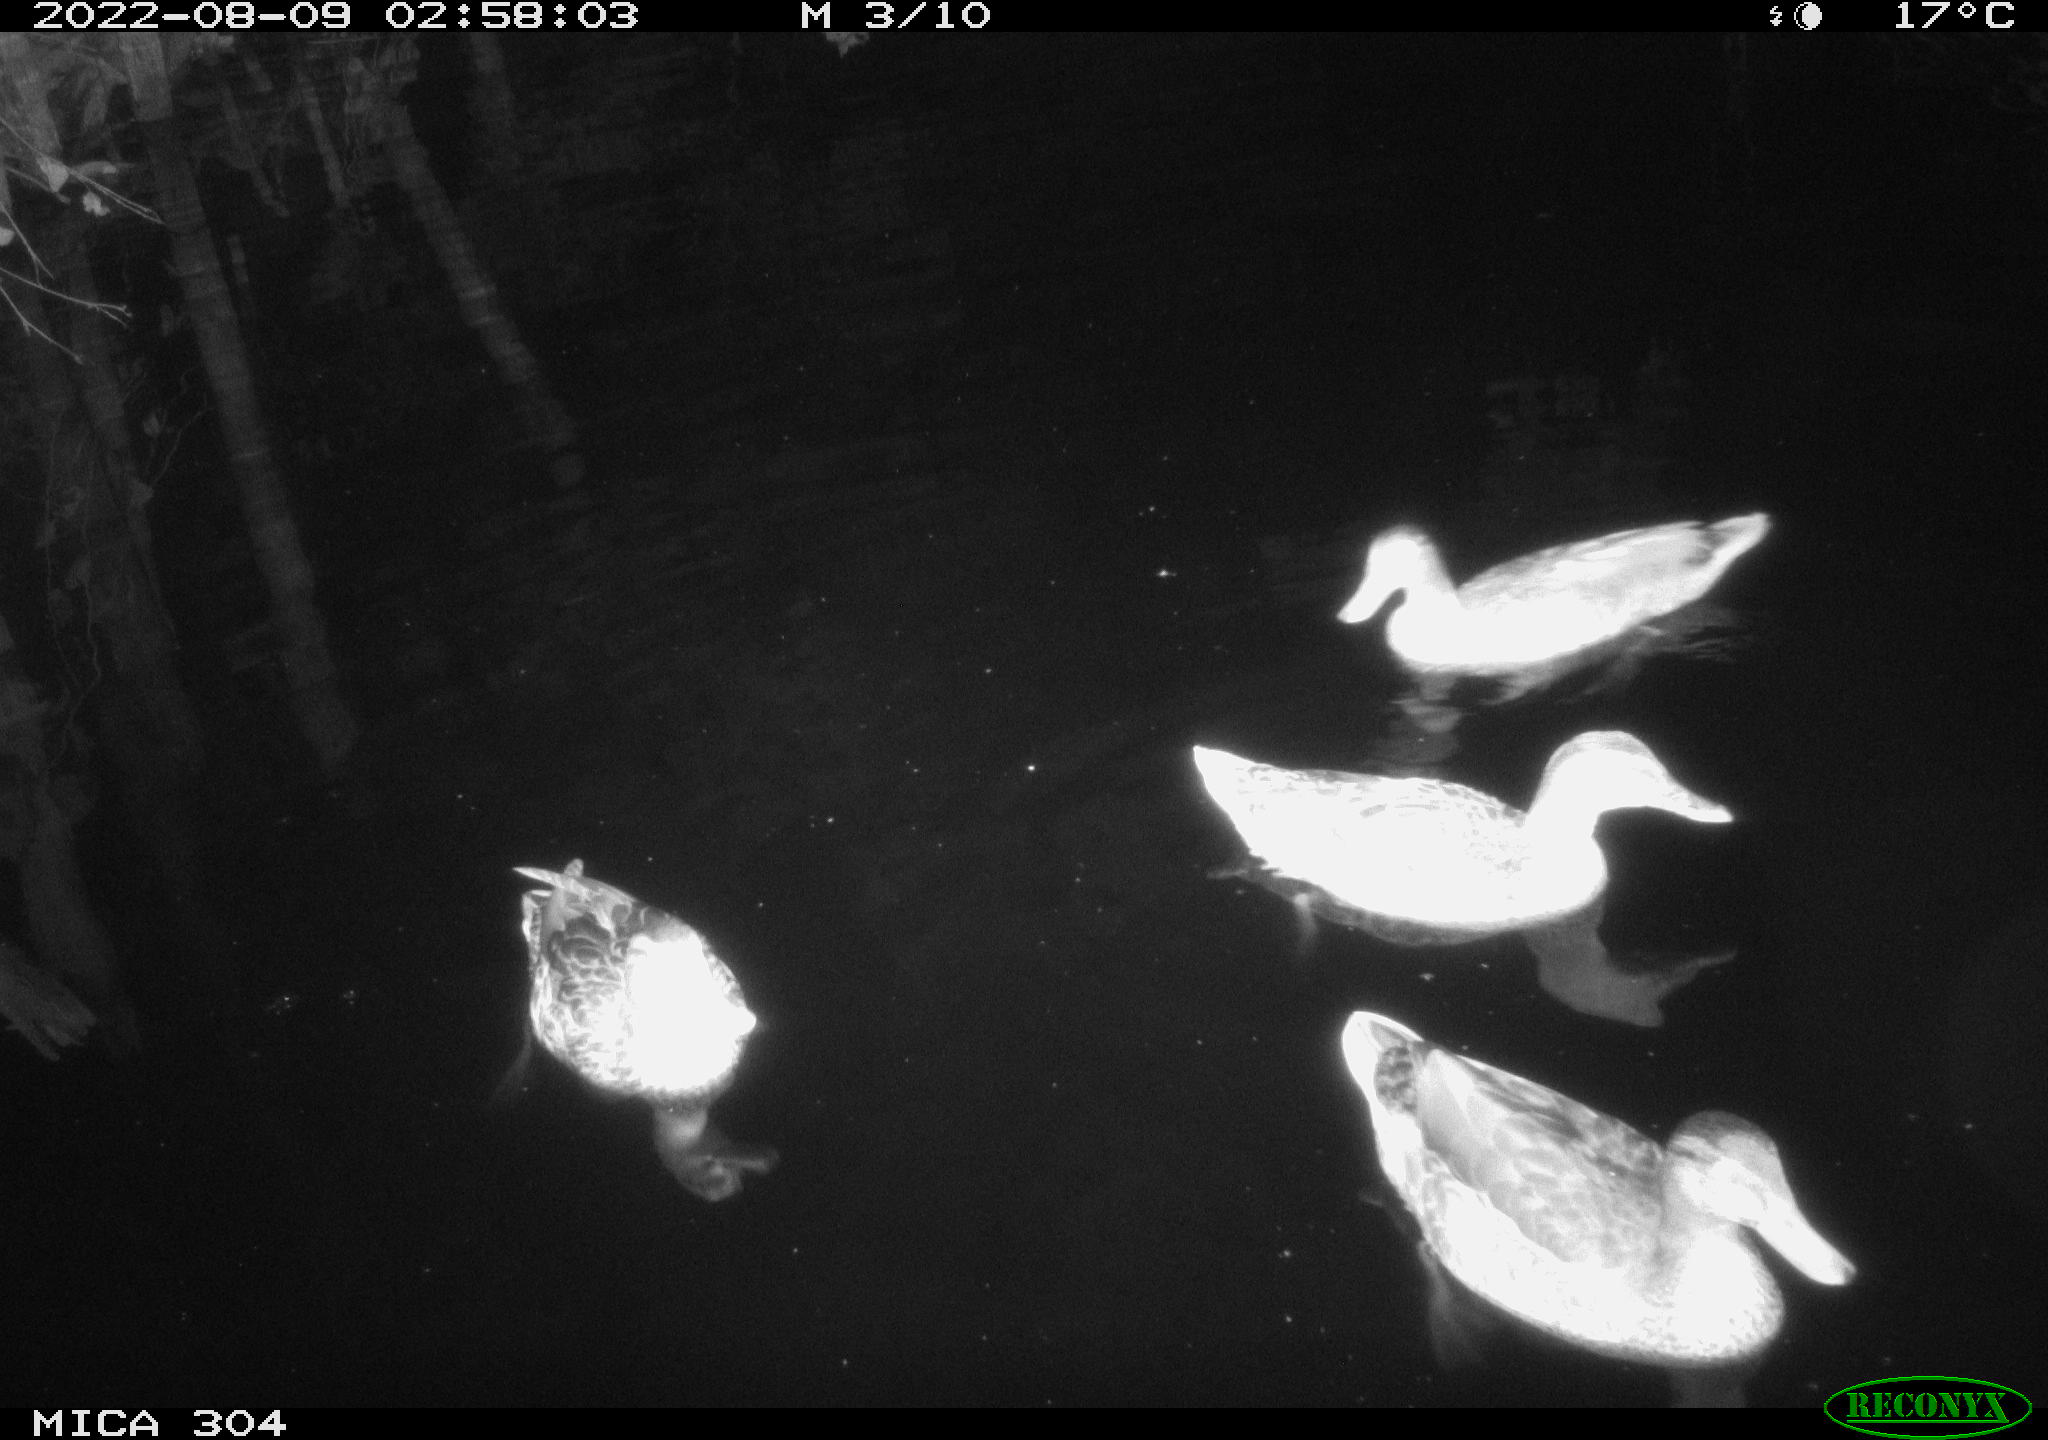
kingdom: Animalia
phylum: Chordata
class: Aves
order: Anseriformes
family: Anatidae
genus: Mareca
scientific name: Mareca strepera
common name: Gadwall
